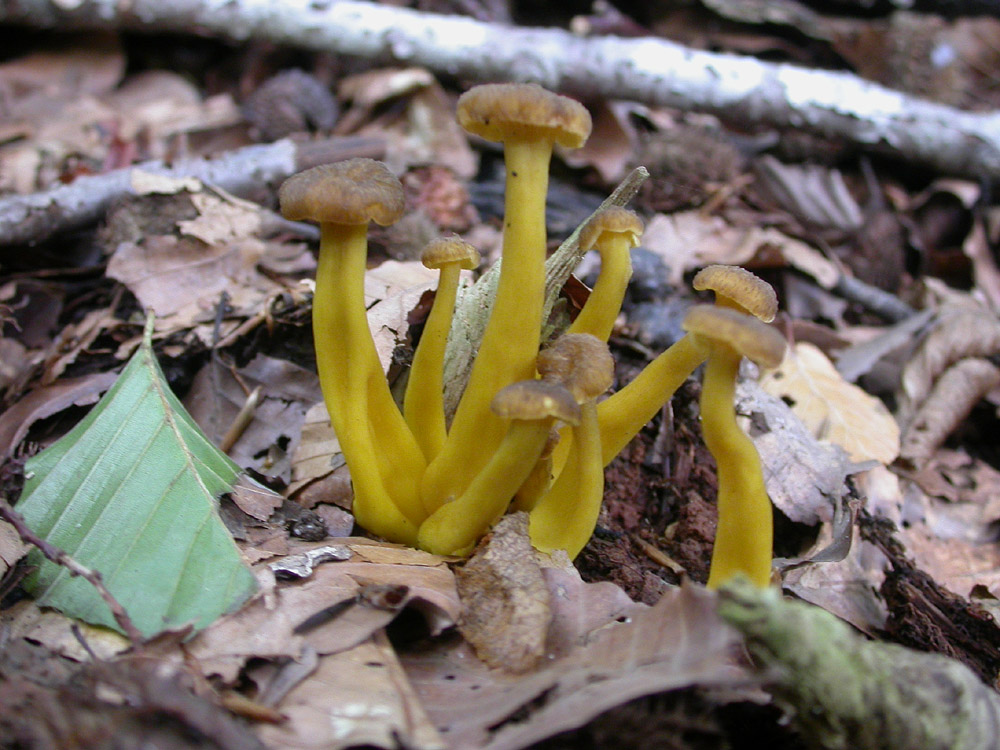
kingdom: Fungi
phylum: Basidiomycota
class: Agaricomycetes
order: Cantharellales
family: Hydnaceae
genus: Craterellus
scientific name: Craterellus tubaeformis
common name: tragt-kantarel
